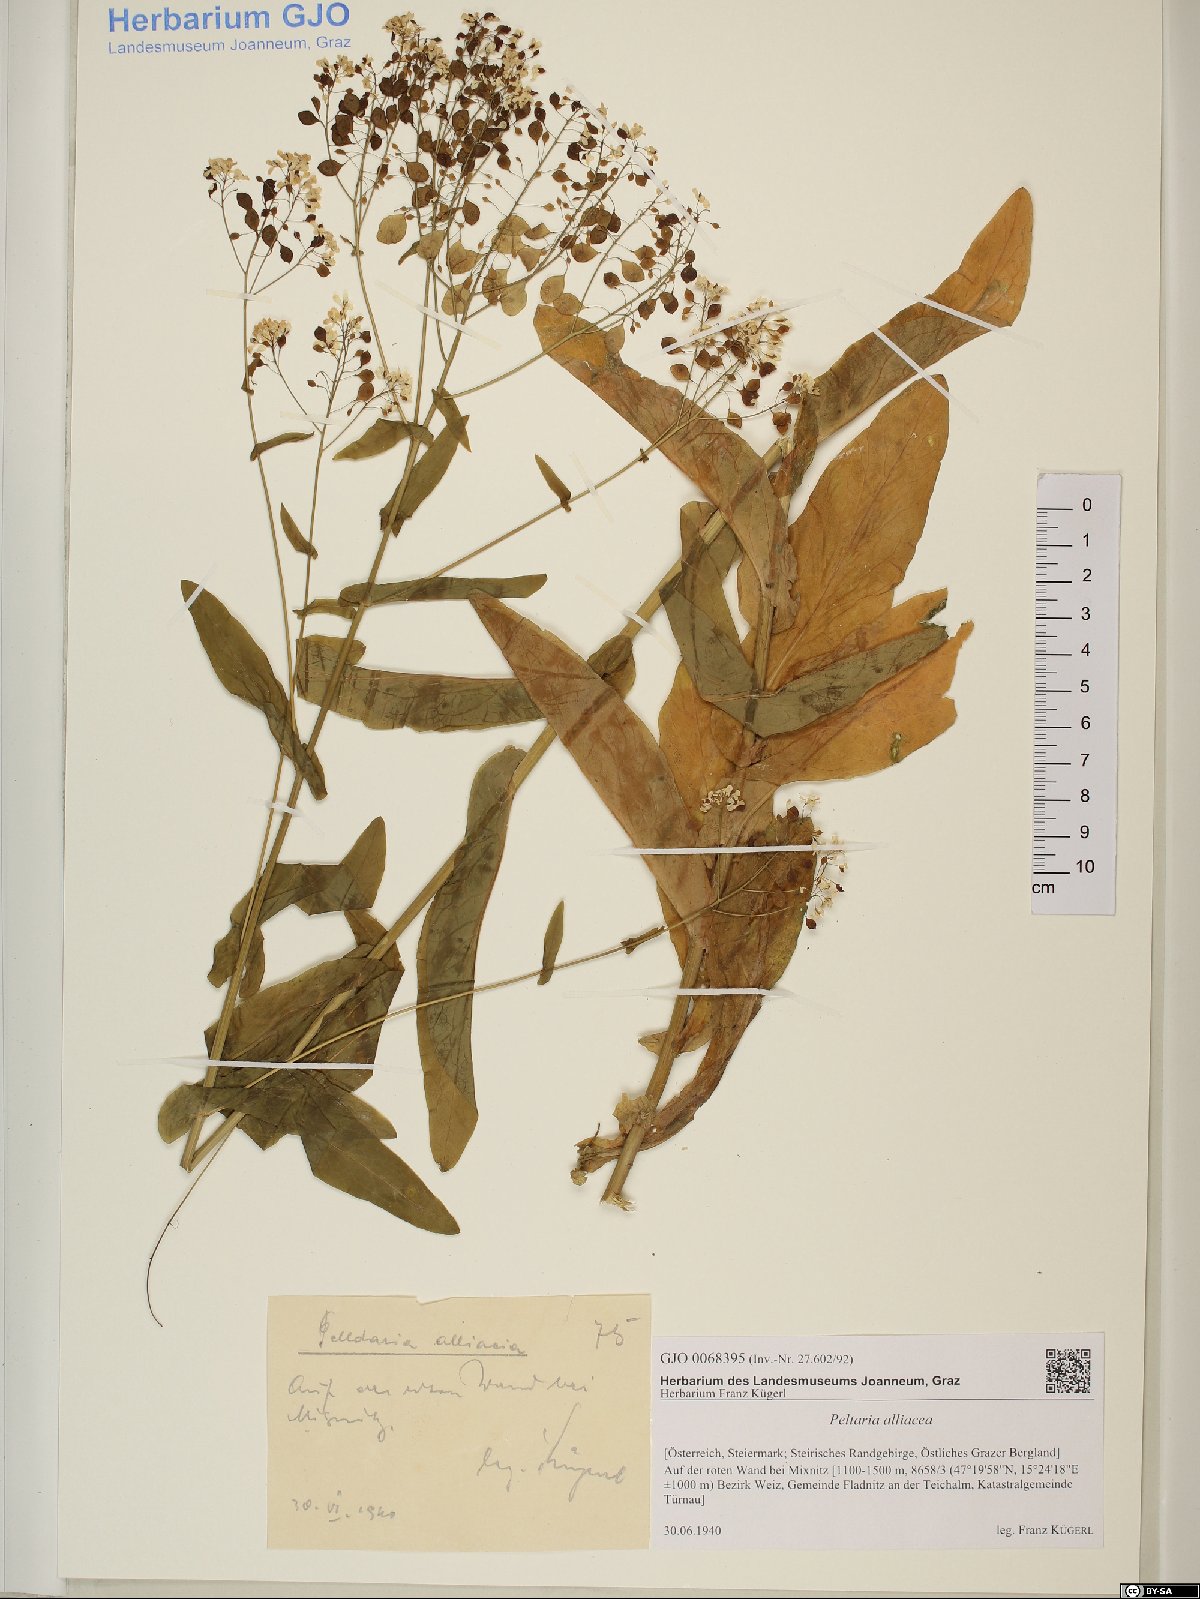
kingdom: Plantae
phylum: Tracheophyta
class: Magnoliopsida
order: Brassicales
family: Brassicaceae
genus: Peltaria
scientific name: Peltaria alliacea
